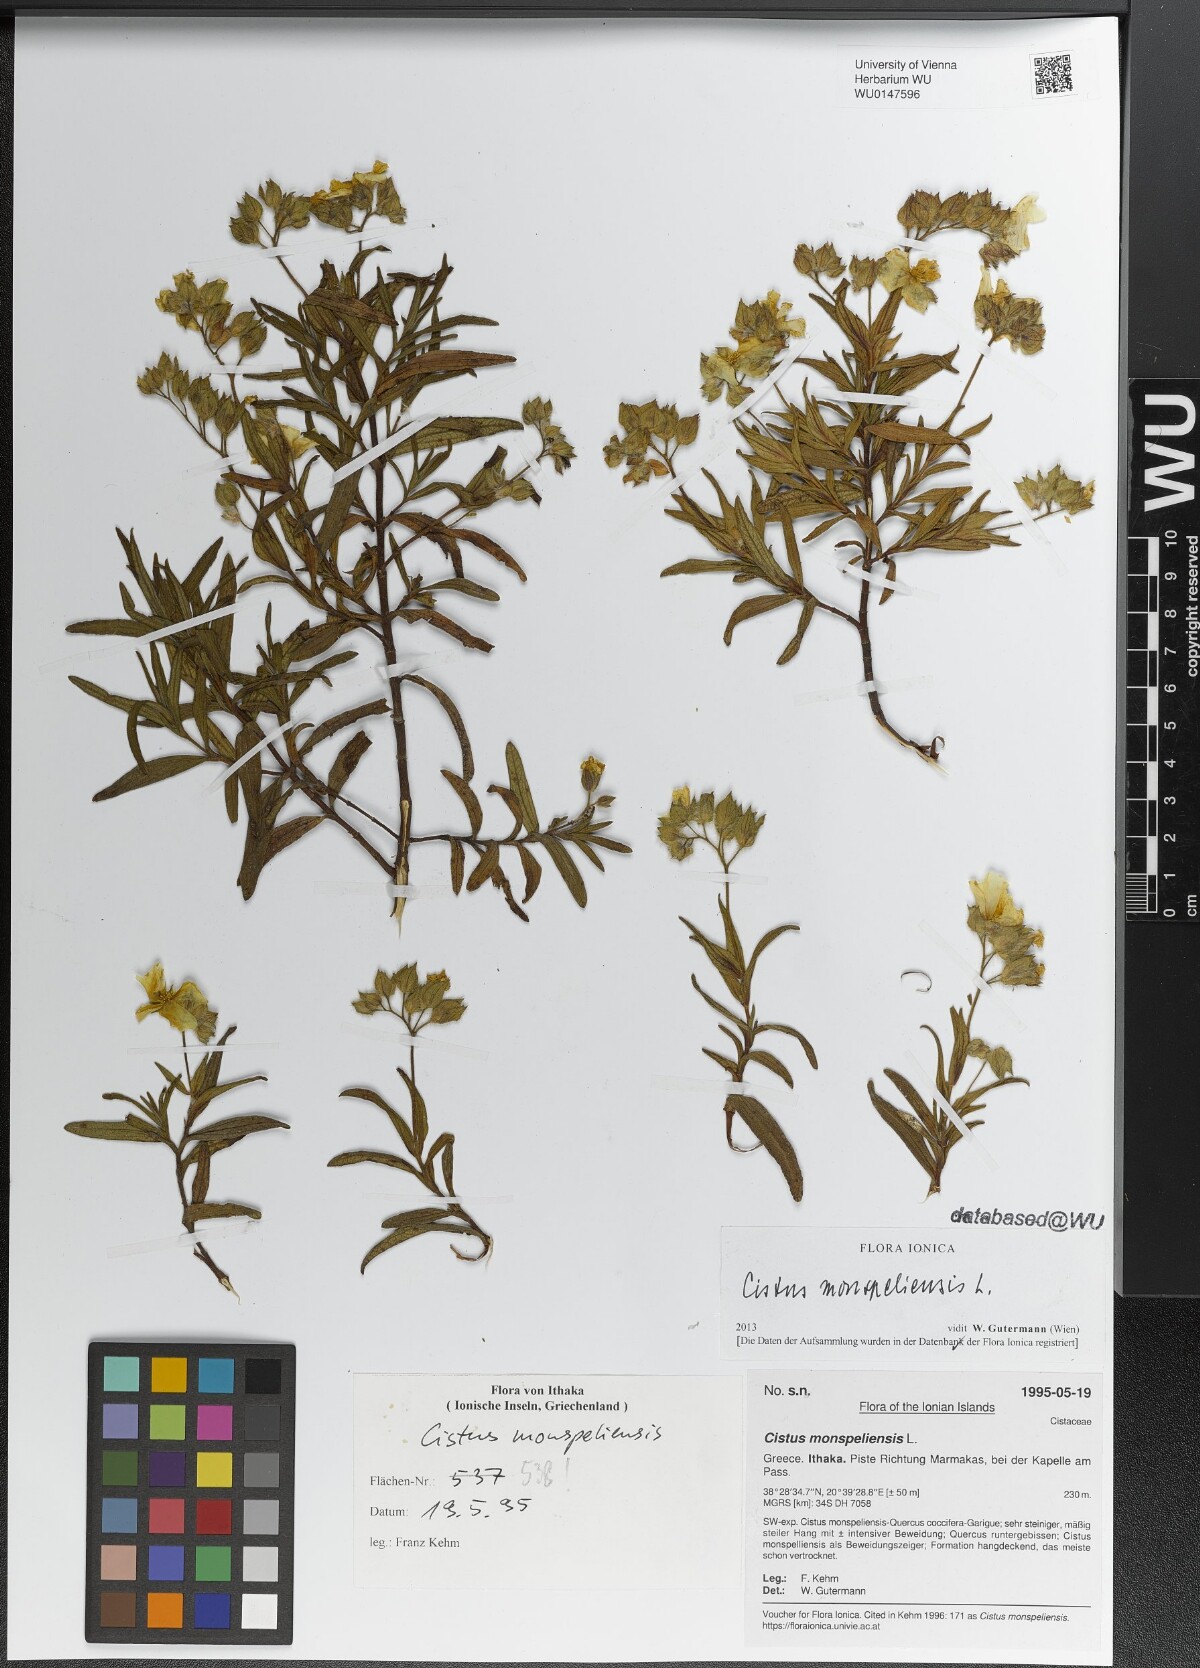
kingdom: Plantae
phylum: Tracheophyta
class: Magnoliopsida
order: Malvales
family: Cistaceae
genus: Cistus
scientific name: Cistus monspeliensis
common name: Montpelier cistus
